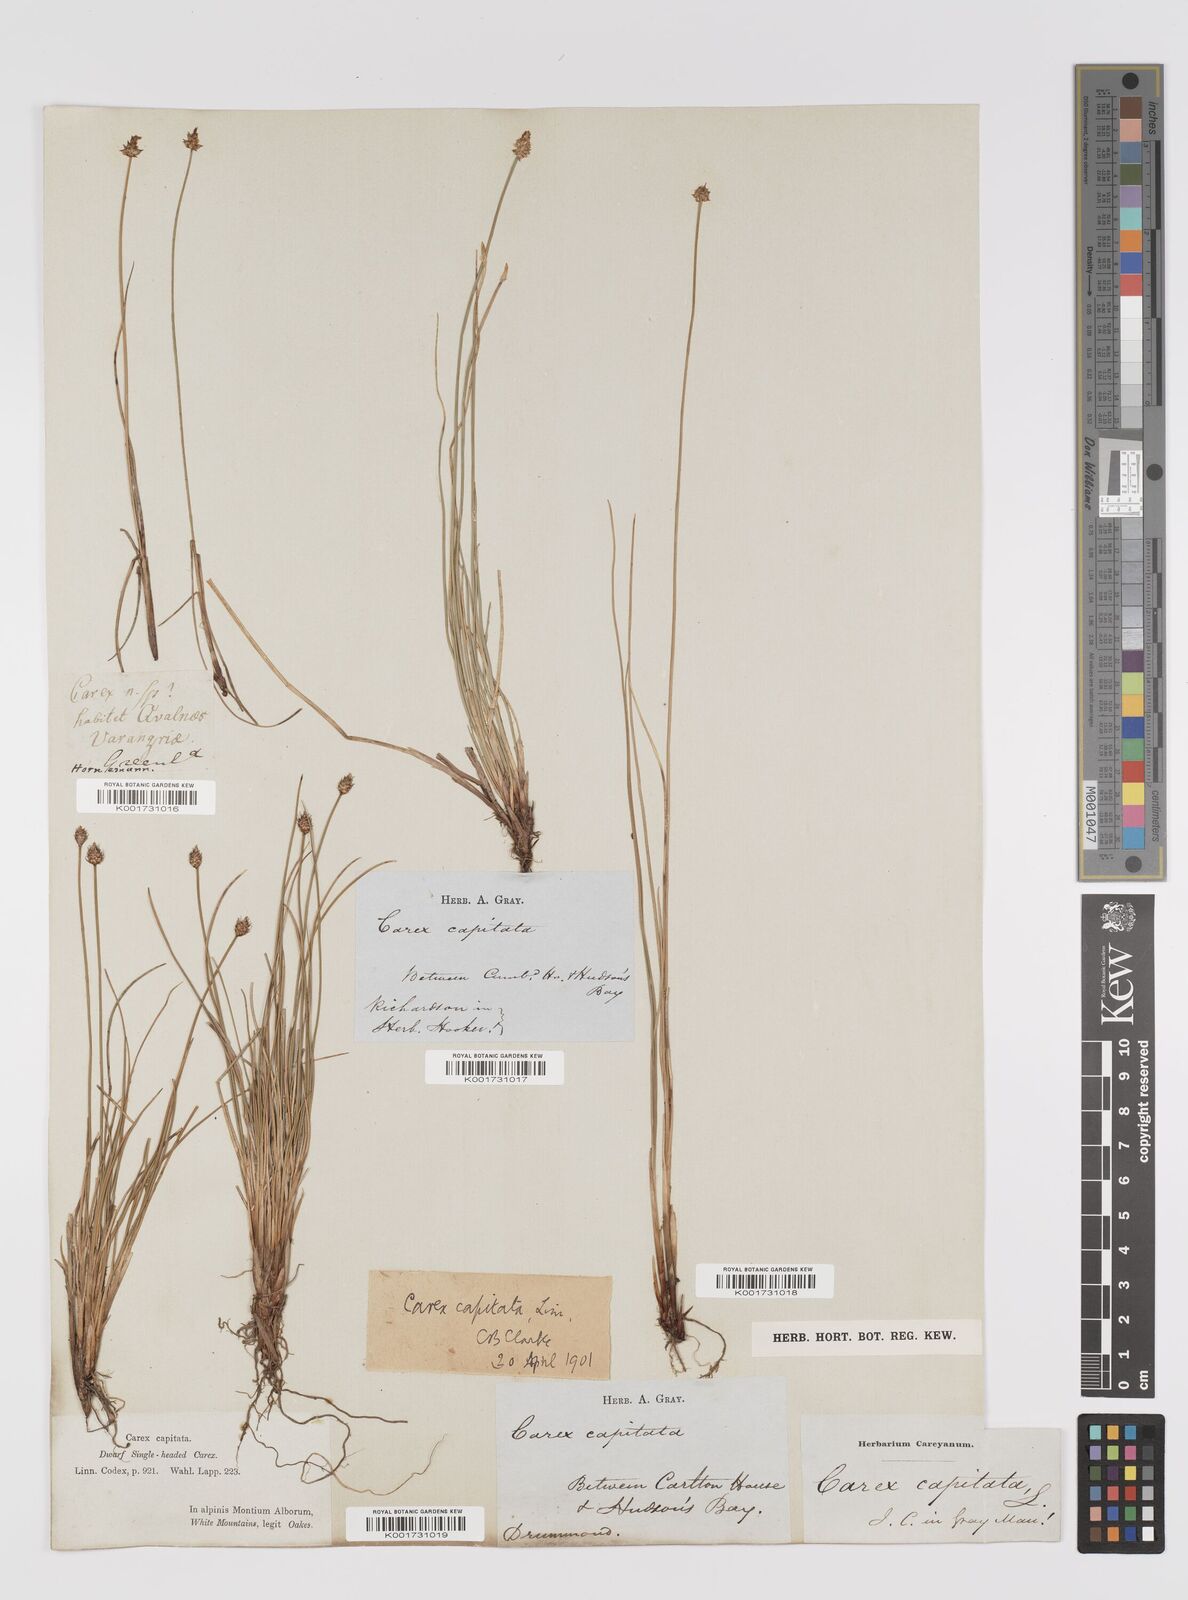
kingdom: Plantae
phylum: Tracheophyta
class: Liliopsida
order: Poales
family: Cyperaceae
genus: Carex
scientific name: Carex capitata
